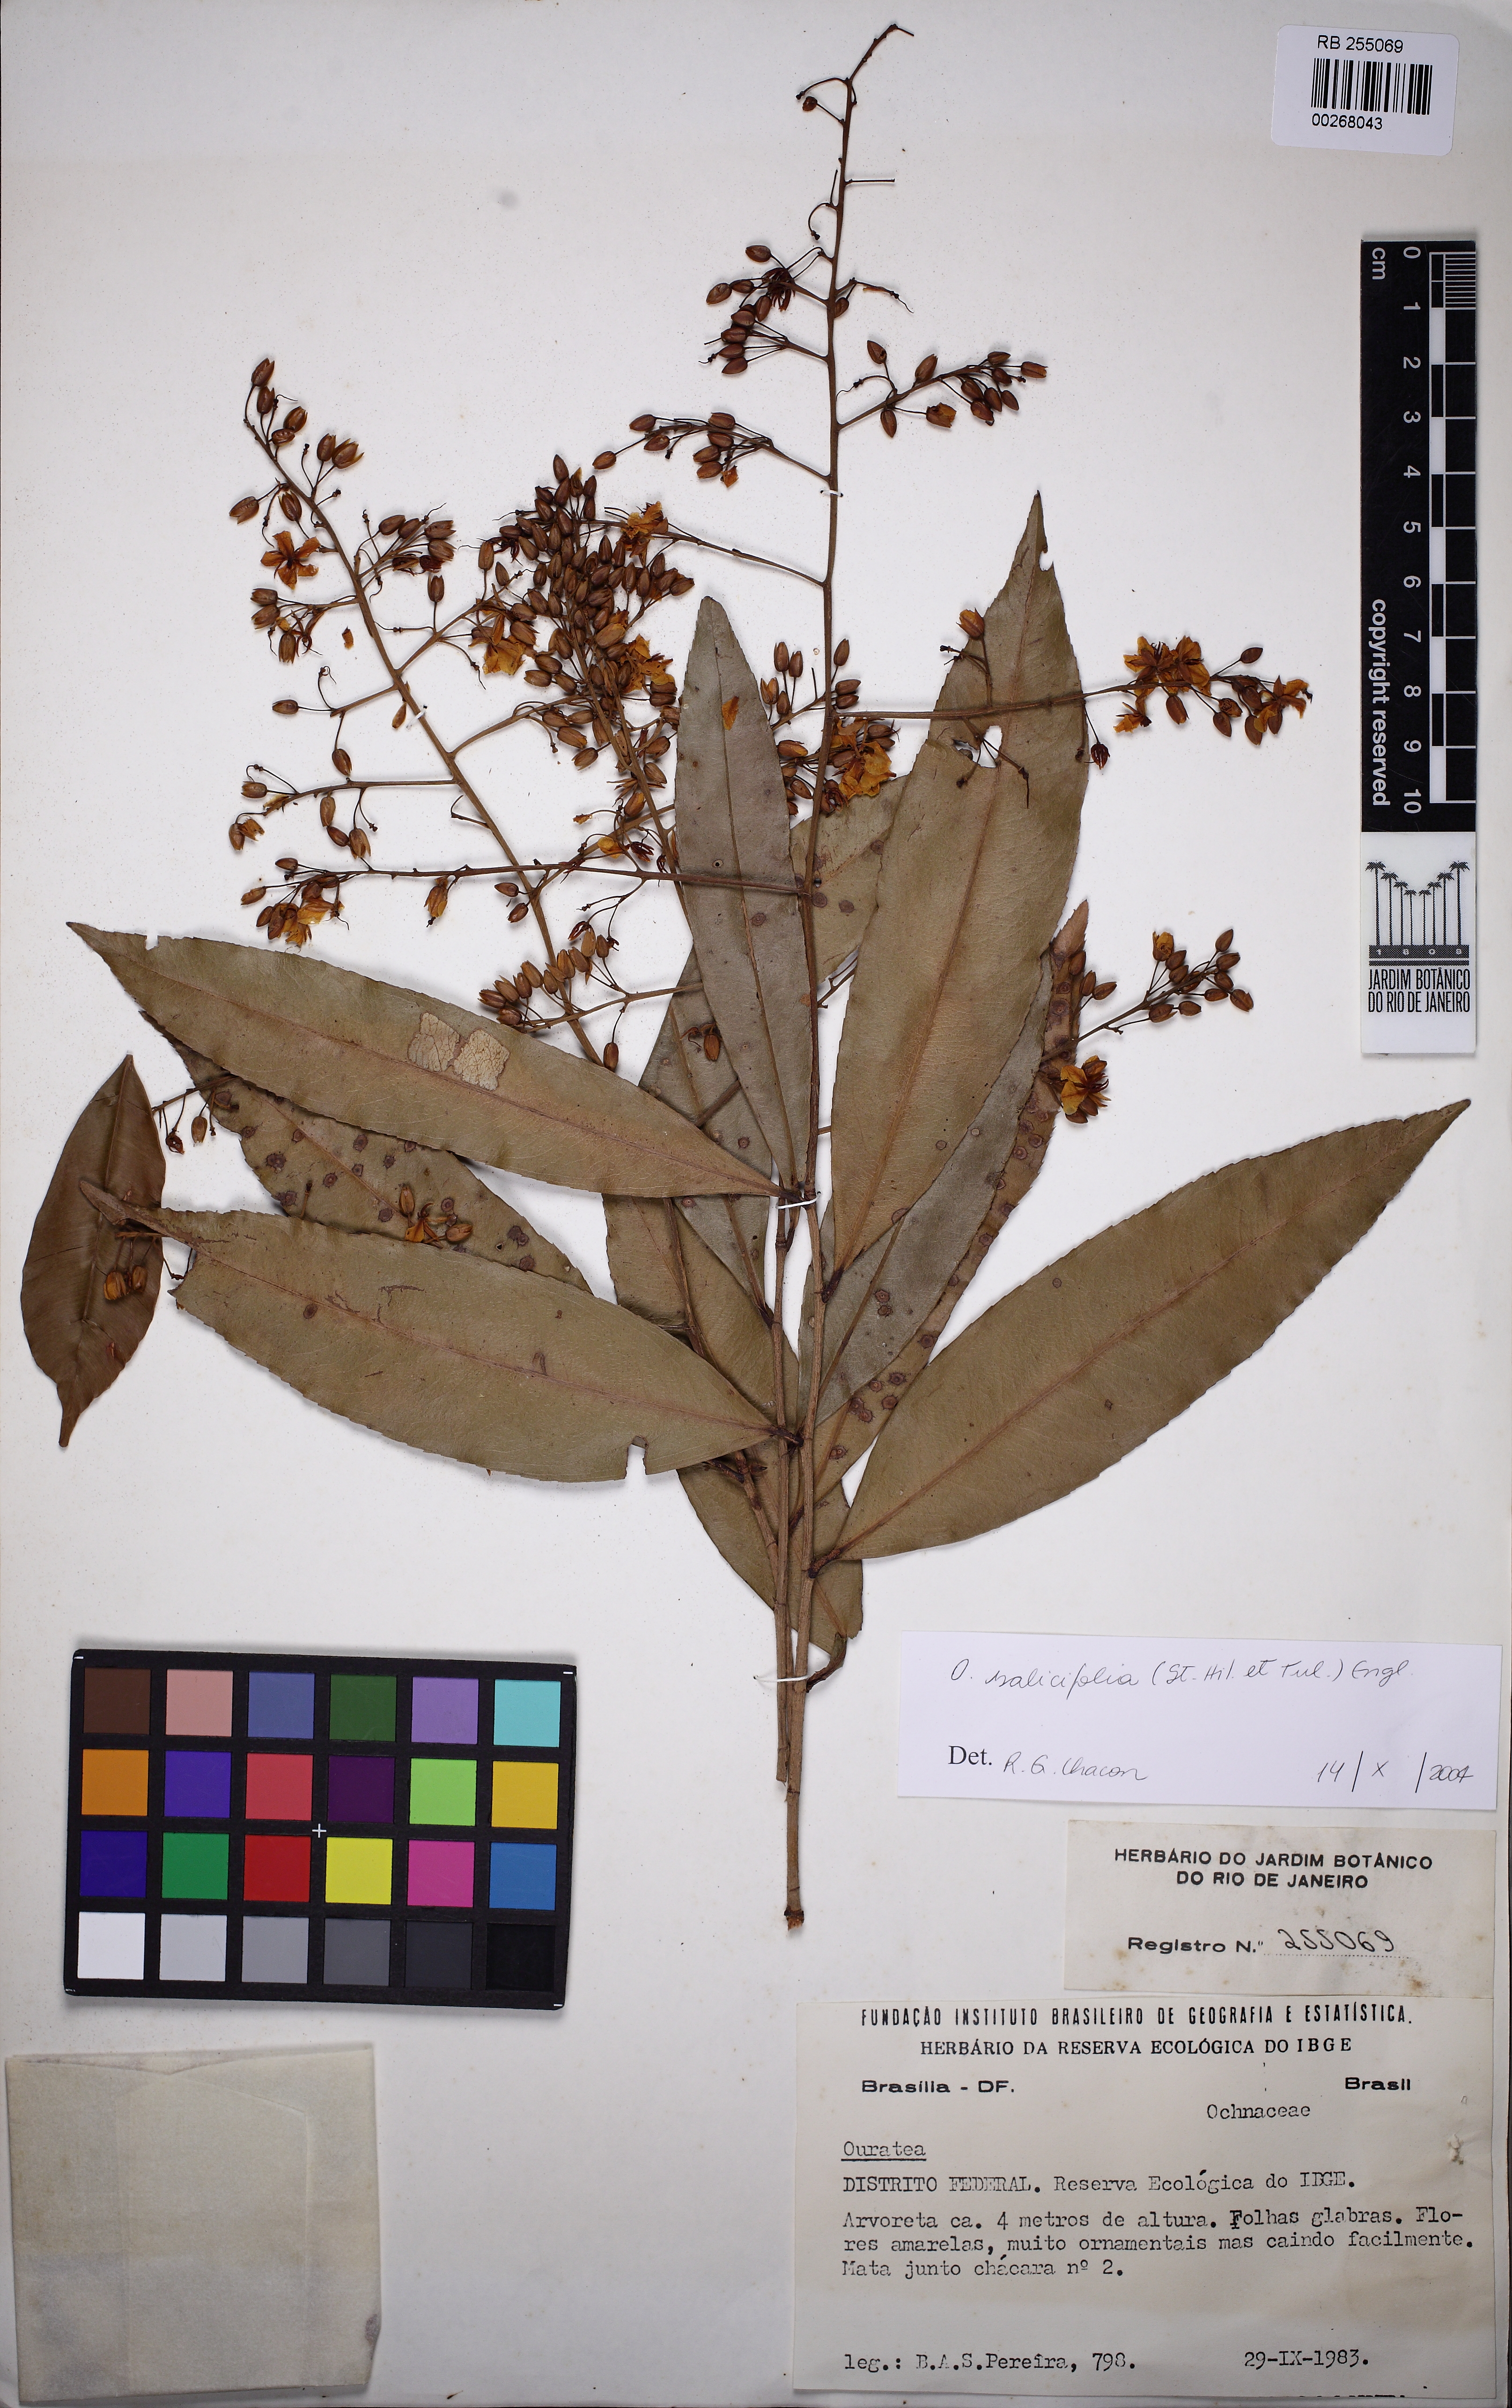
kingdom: Plantae
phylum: Tracheophyta
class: Magnoliopsida
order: Malpighiales
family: Ochnaceae
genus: Ouratea
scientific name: Ouratea salicifolia
